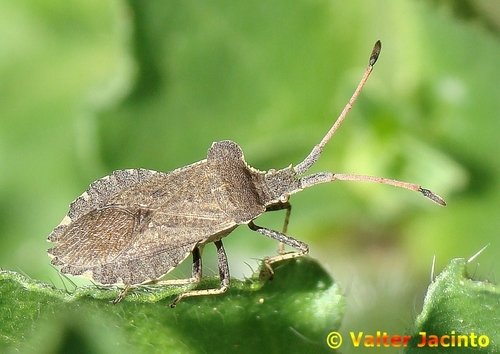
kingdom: Animalia
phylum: Arthropoda
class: Insecta
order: Hemiptera
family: Coreidae
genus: Enoplops
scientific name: Enoplops scapha
